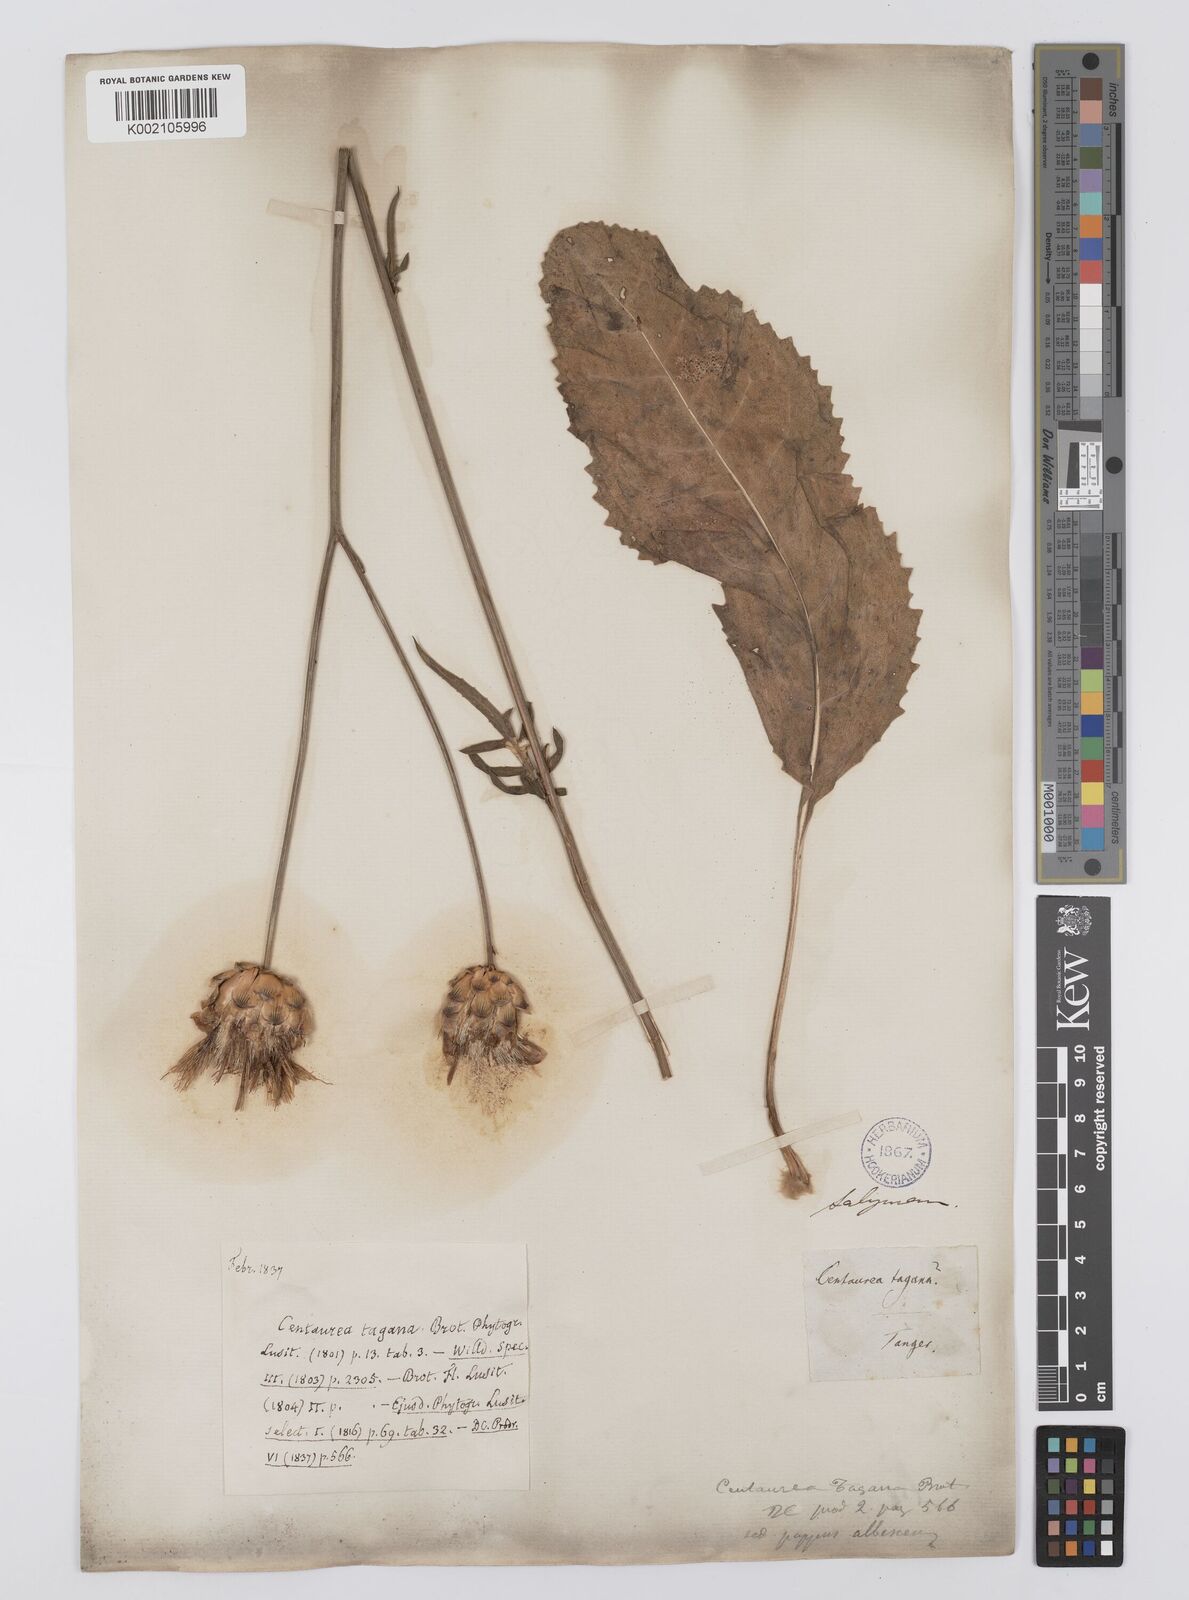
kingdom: Plantae
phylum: Tracheophyta
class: Magnoliopsida
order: Asterales
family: Asteraceae
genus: Rhaponticoides
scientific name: Rhaponticoides africana
